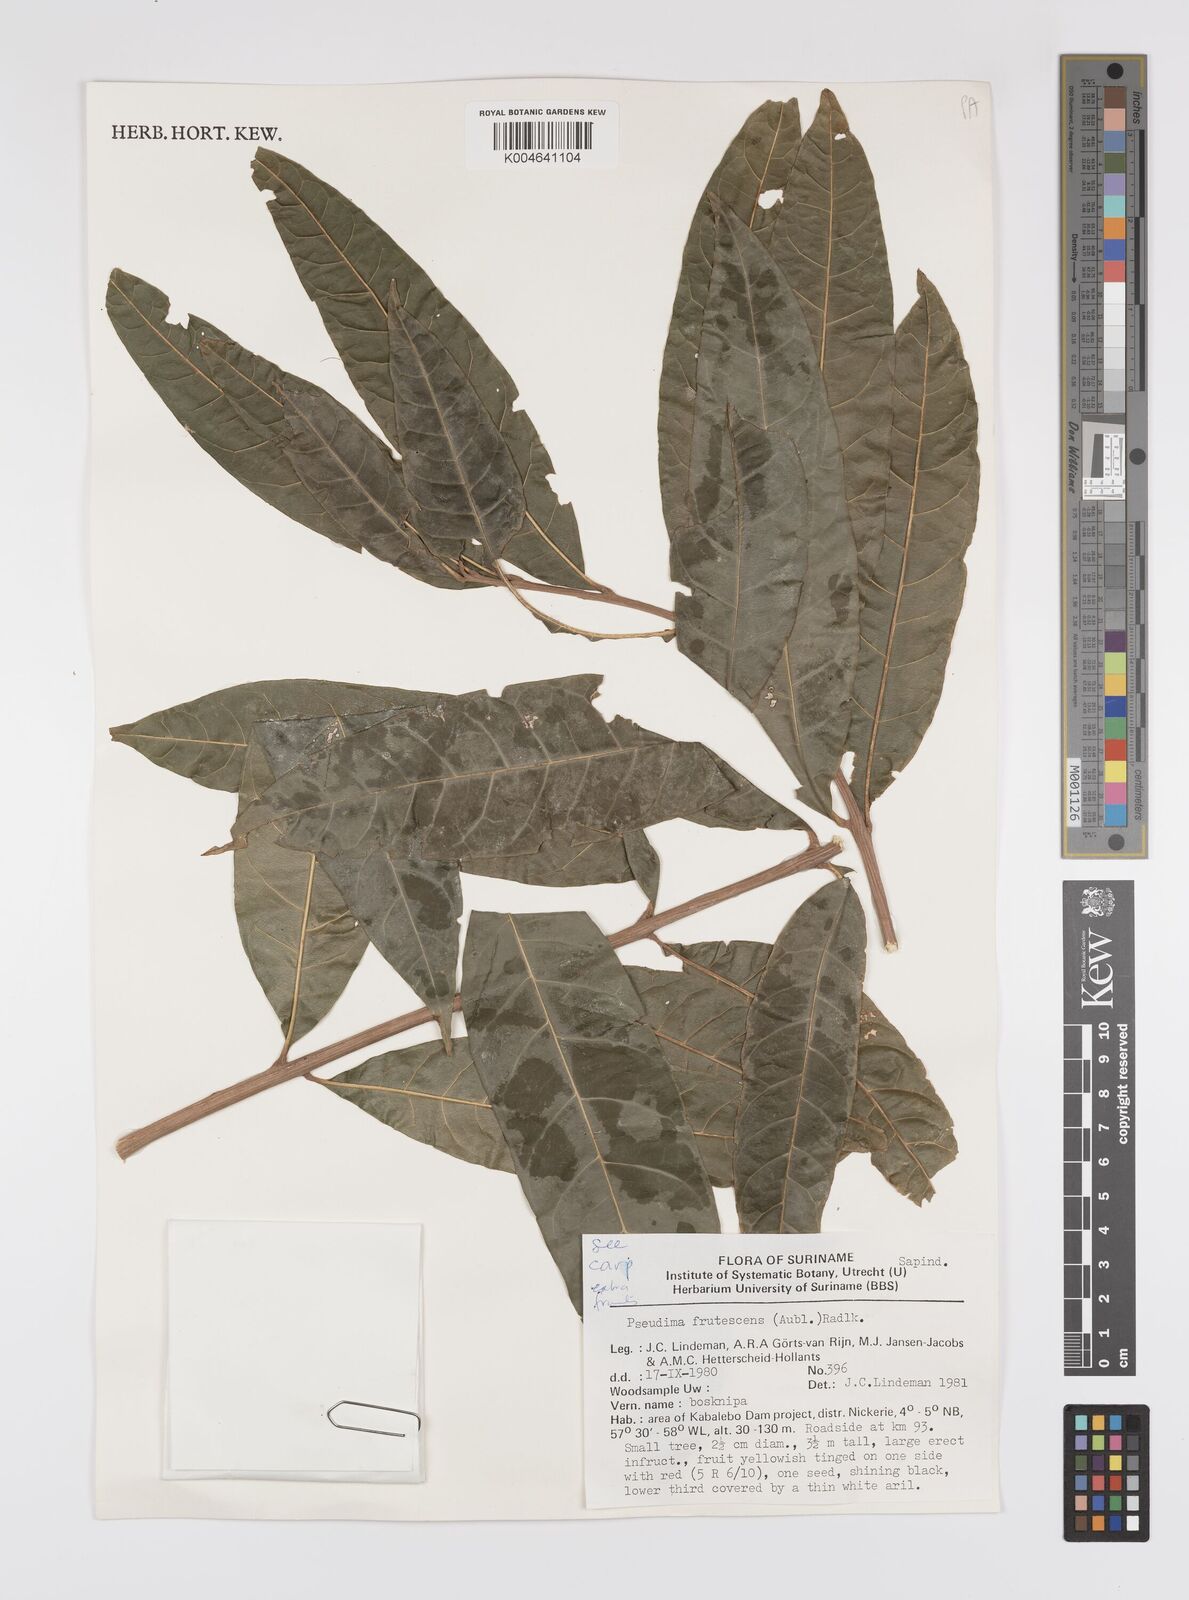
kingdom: Plantae
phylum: Tracheophyta
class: Magnoliopsida
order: Sapindales
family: Sapindaceae
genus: Pseudima
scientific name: Pseudima frutescens
